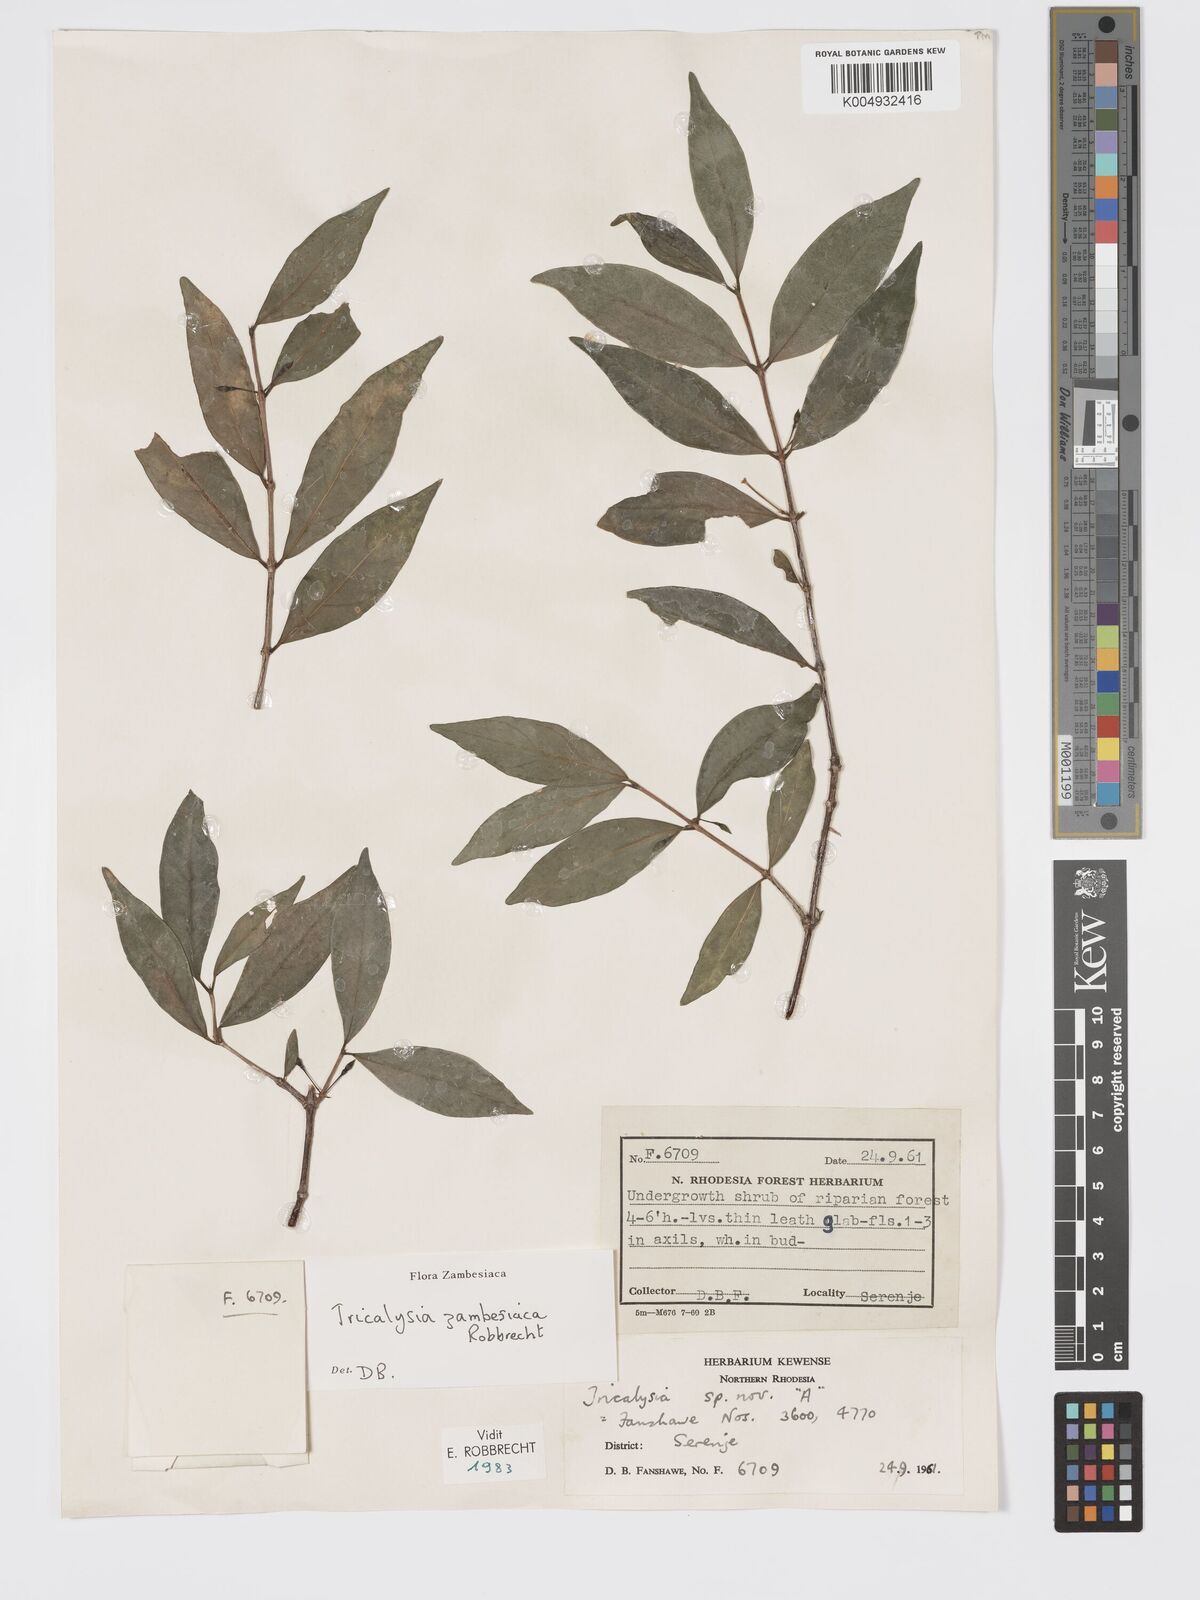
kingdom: Plantae
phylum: Tracheophyta
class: Magnoliopsida
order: Gentianales
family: Rubiaceae
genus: Tricalysia
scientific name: Tricalysia
